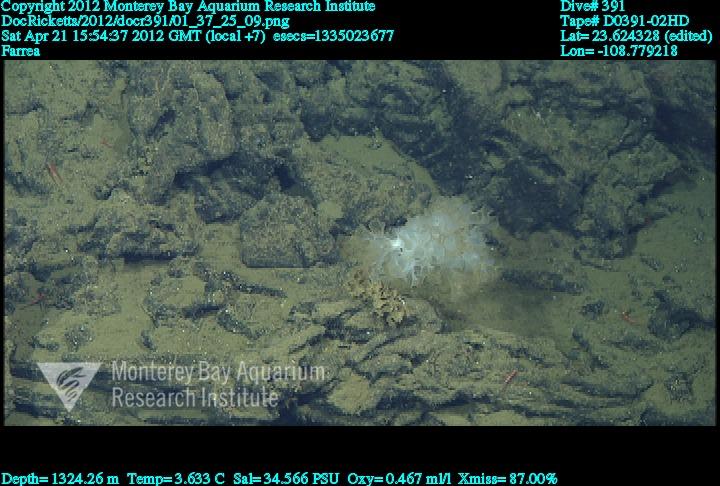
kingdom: Animalia
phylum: Porifera
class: Hexactinellida
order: Sceptrulophora
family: Farreidae
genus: Farrea
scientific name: Farrea
